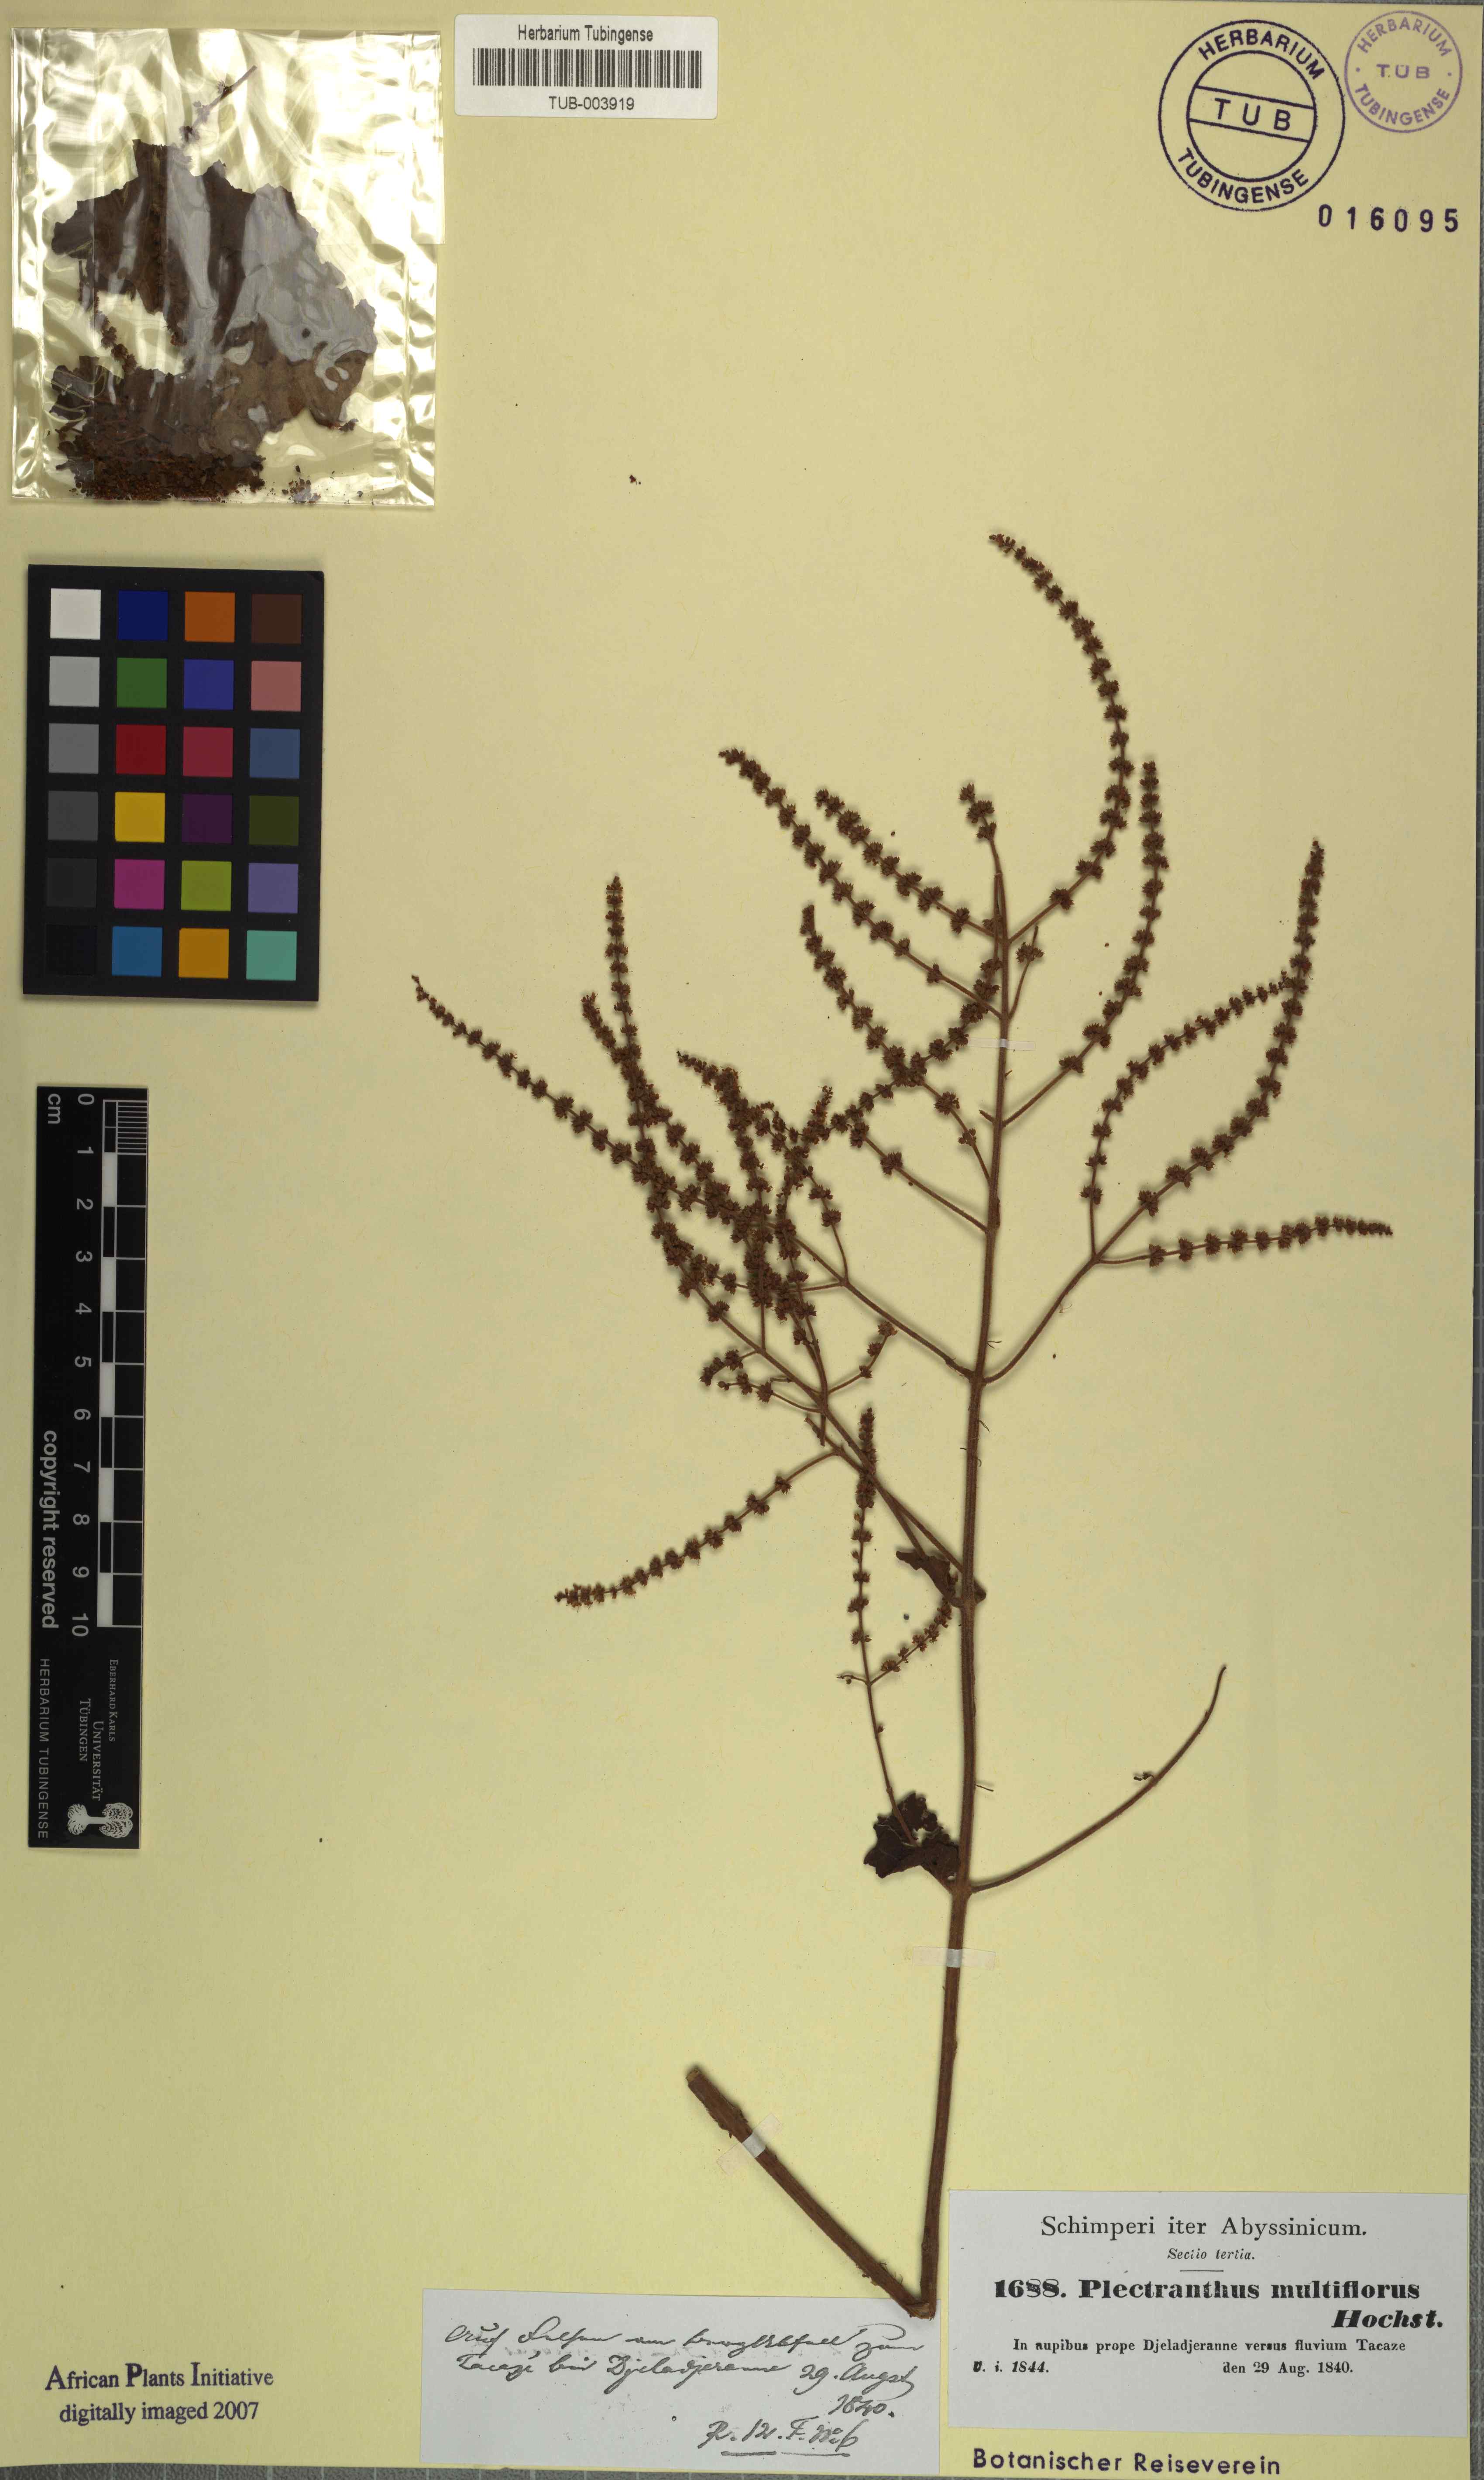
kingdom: Plantae
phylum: Tracheophyta
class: Magnoliopsida
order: Lamiales
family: Lamiaceae
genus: Tetradenia
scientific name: Tetradenia multiflora
